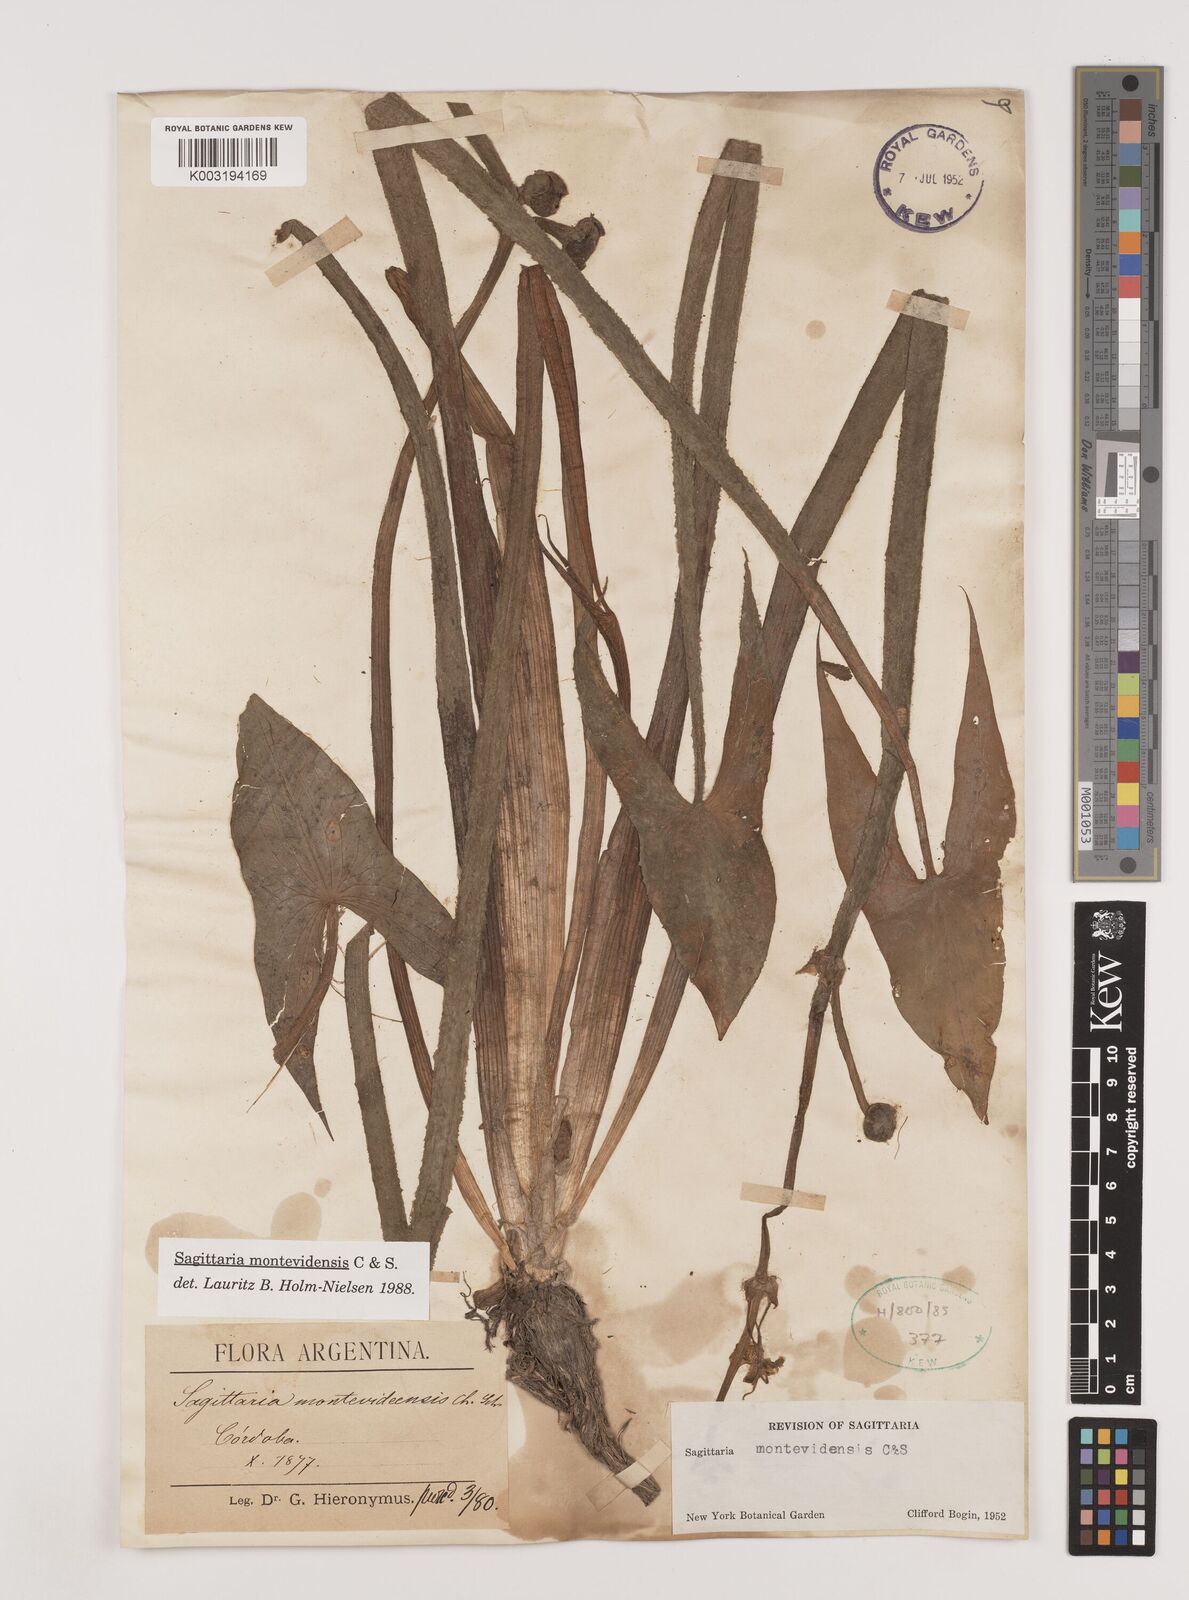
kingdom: Plantae
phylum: Tracheophyta
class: Liliopsida
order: Alismatales
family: Alismataceae
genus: Sagittaria
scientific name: Sagittaria montevidensis
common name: Giant arrowhead
